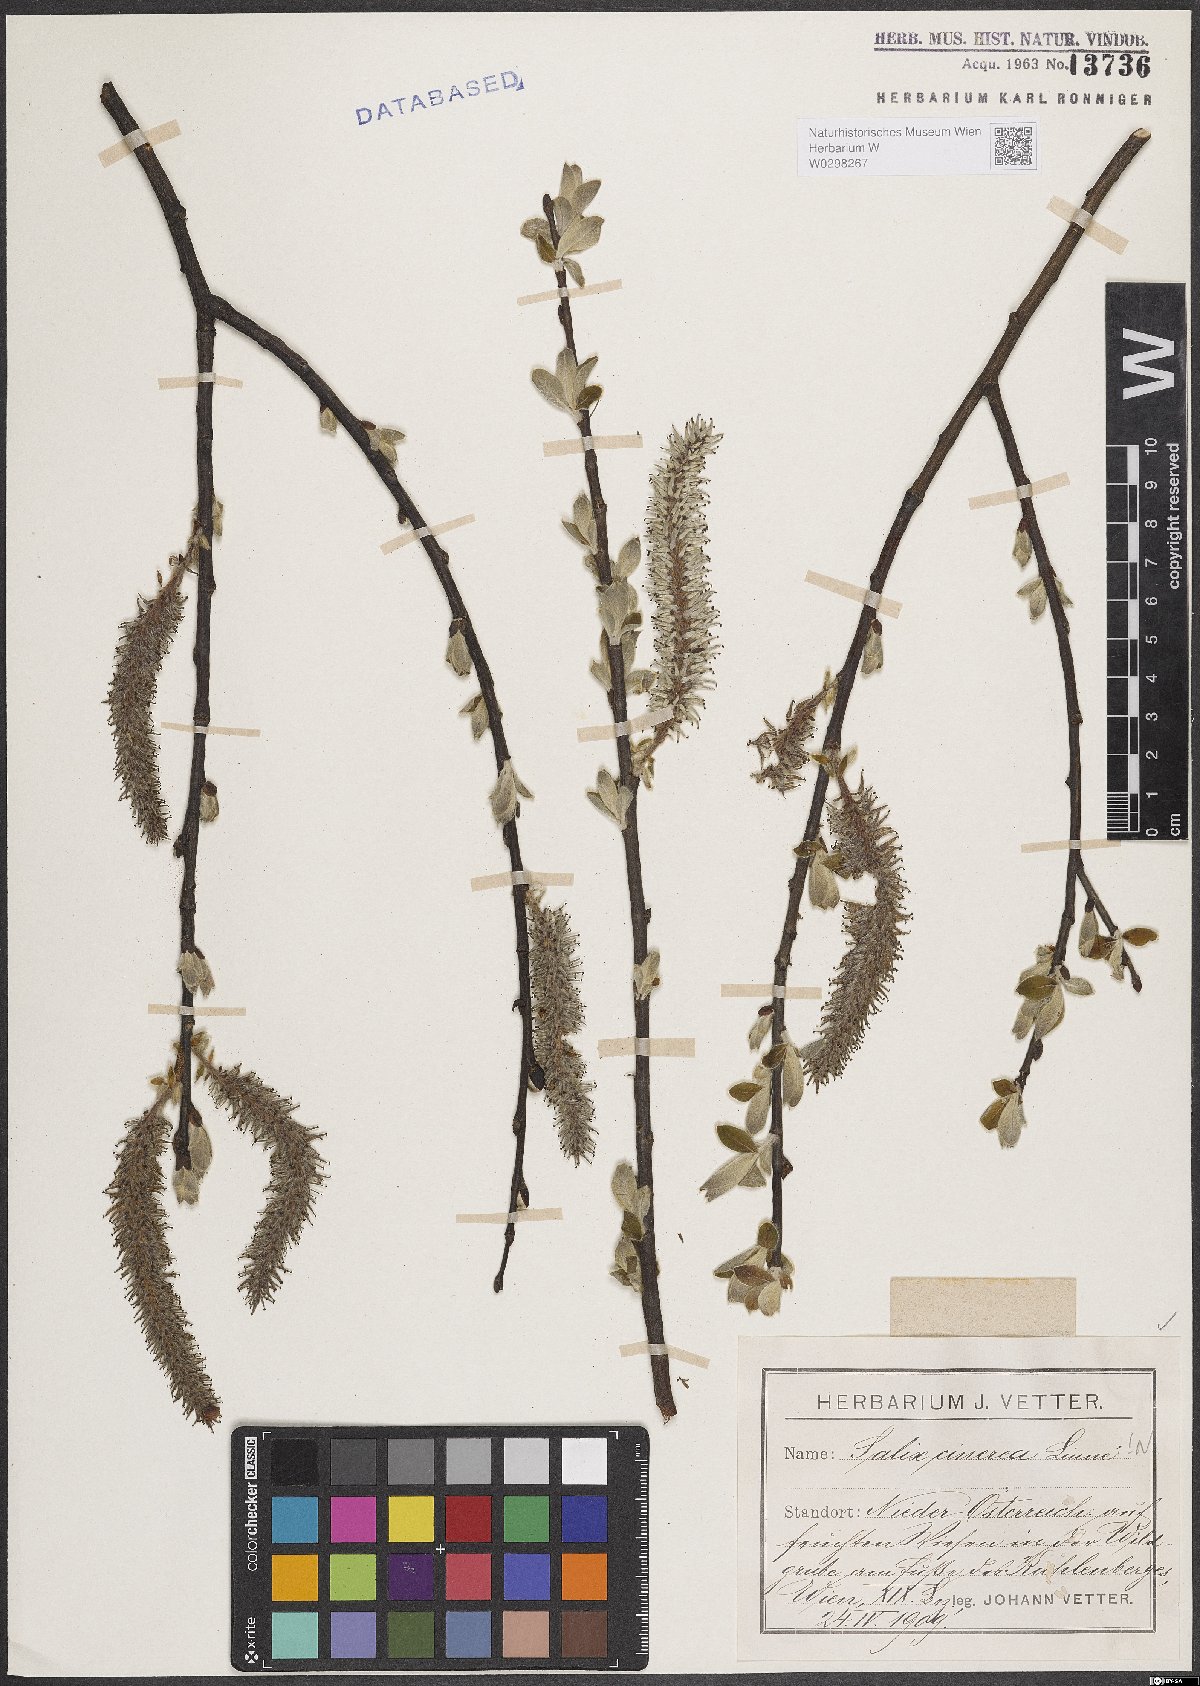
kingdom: Plantae
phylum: Tracheophyta
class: Magnoliopsida
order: Malpighiales
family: Salicaceae
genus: Salix
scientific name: Salix cinerea
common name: Common sallow
